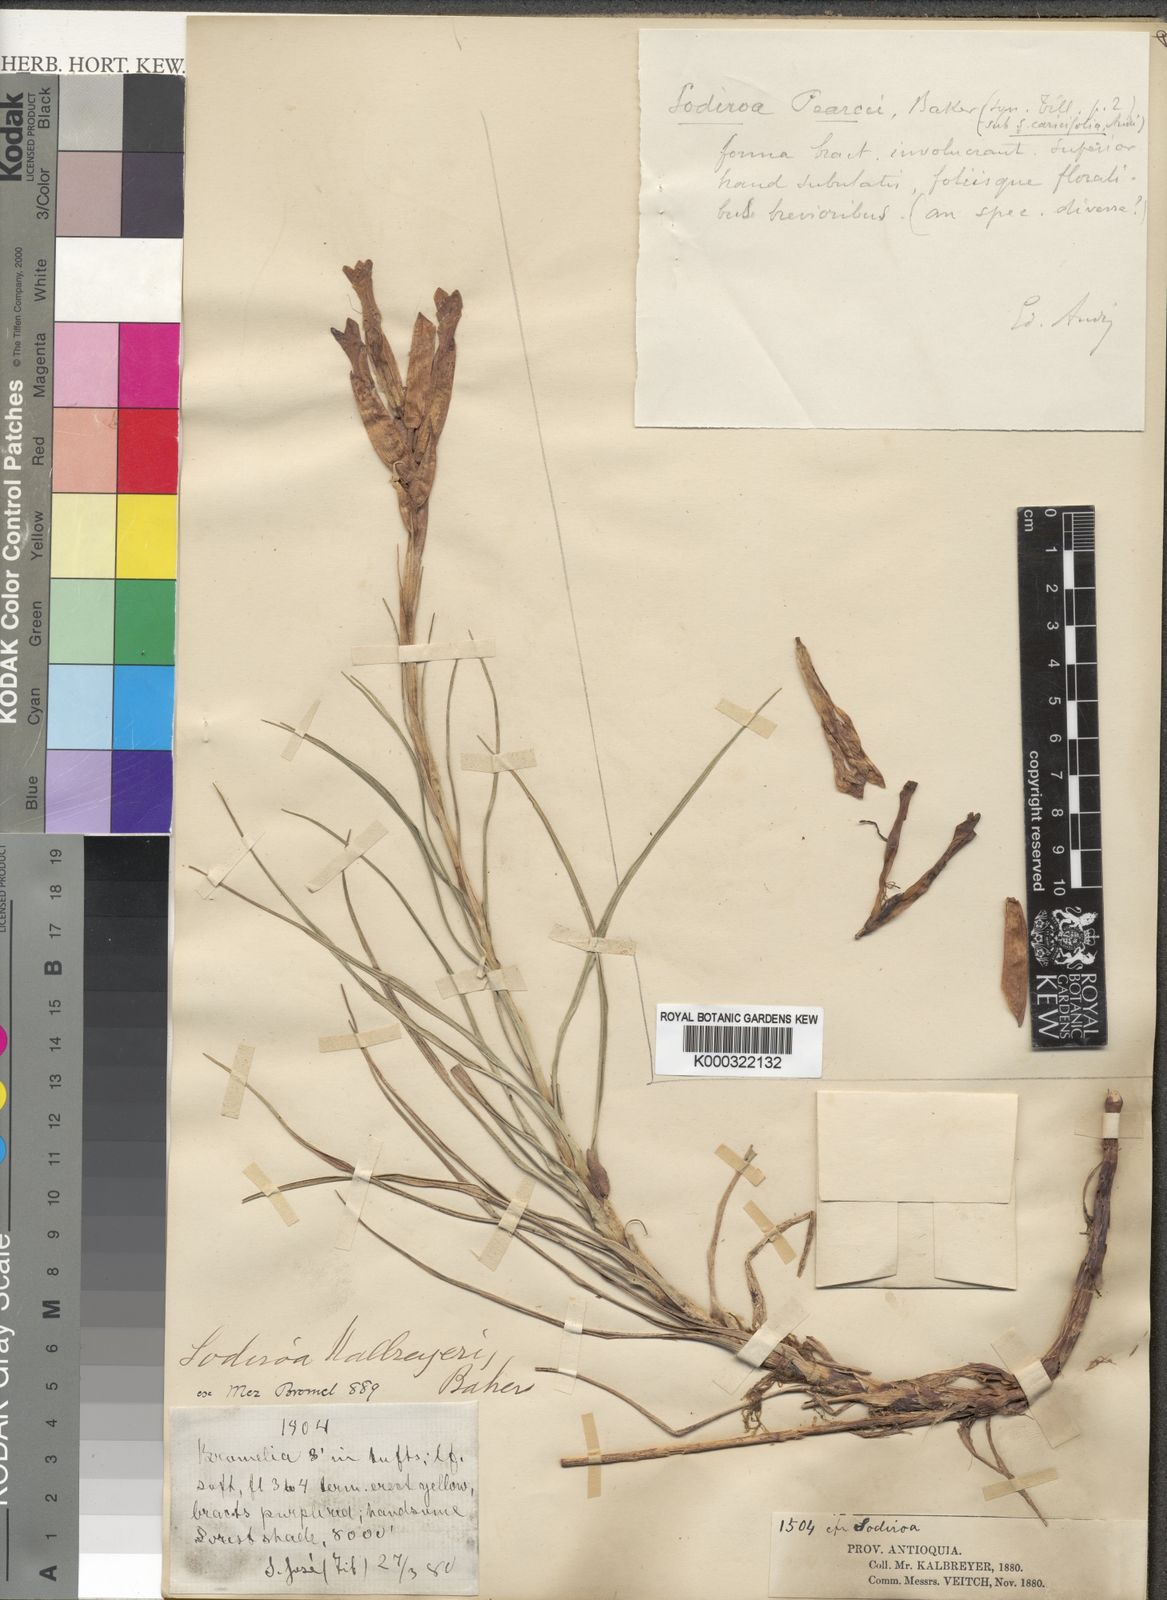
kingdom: Plantae
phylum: Tracheophyta
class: Liliopsida
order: Poales
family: Bromeliaceae
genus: Guzmania
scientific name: Guzmania kalbreyeri
